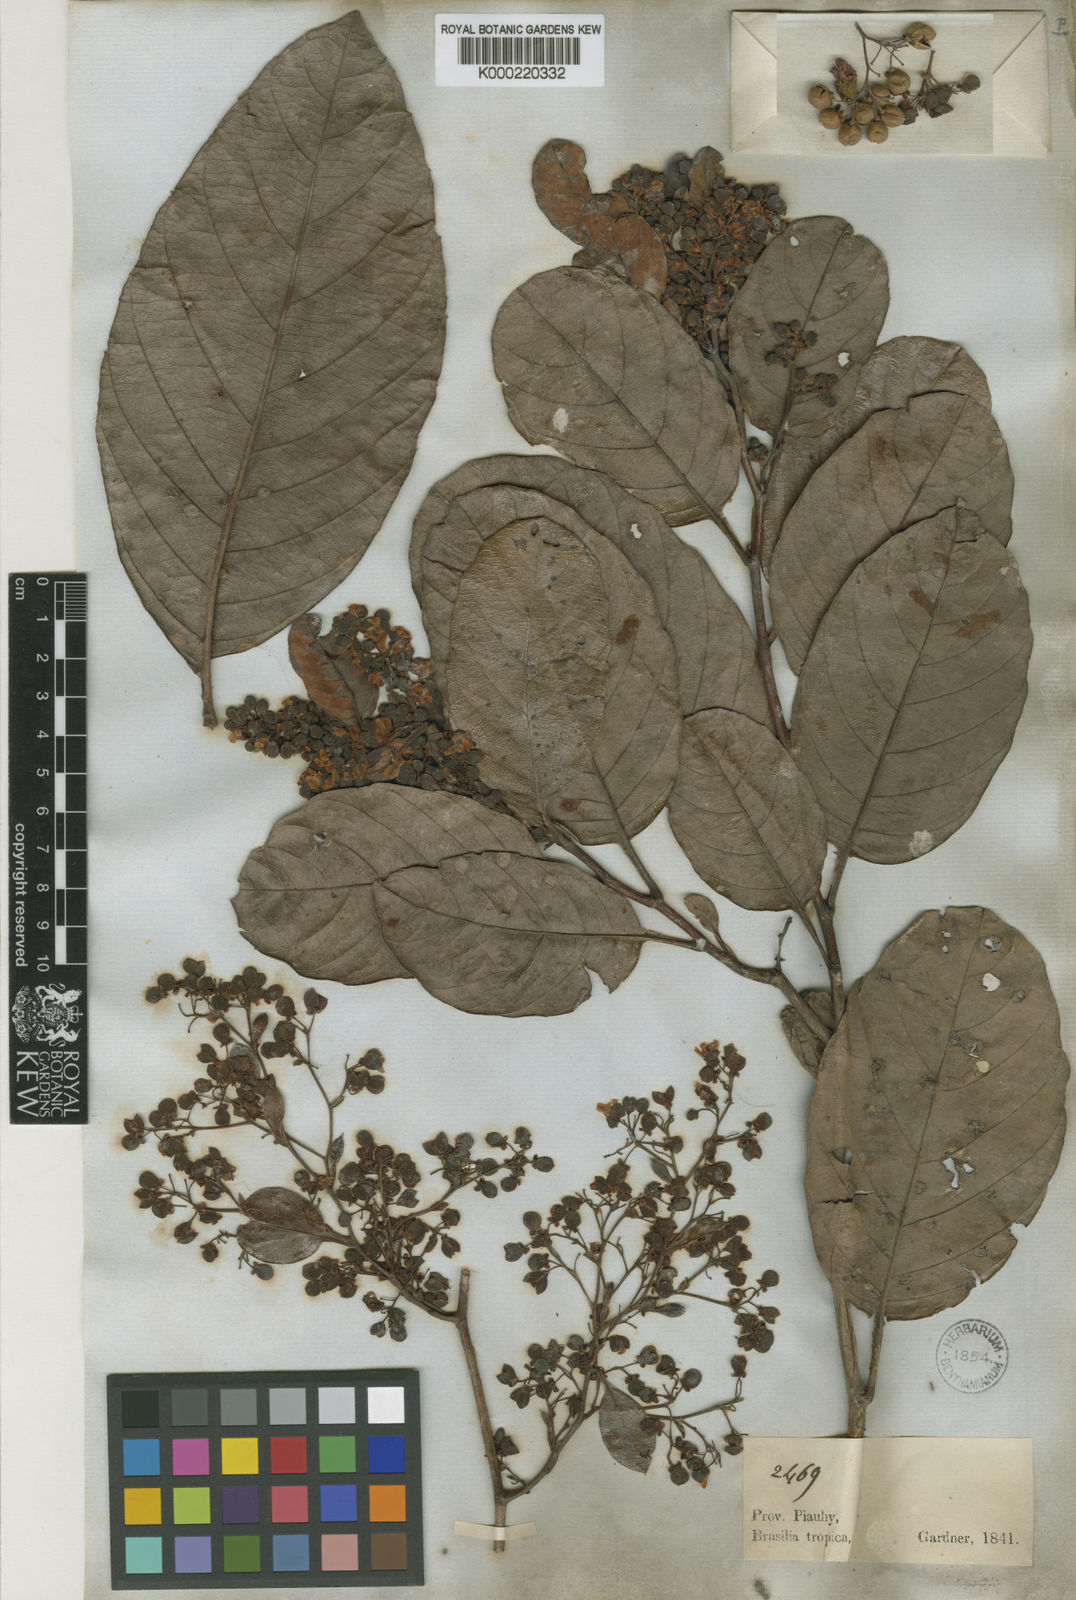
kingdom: Plantae
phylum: Tracheophyta
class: Magnoliopsida
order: Dilleniales
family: Dilleniaceae
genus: Davilla
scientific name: Davilla nitida
